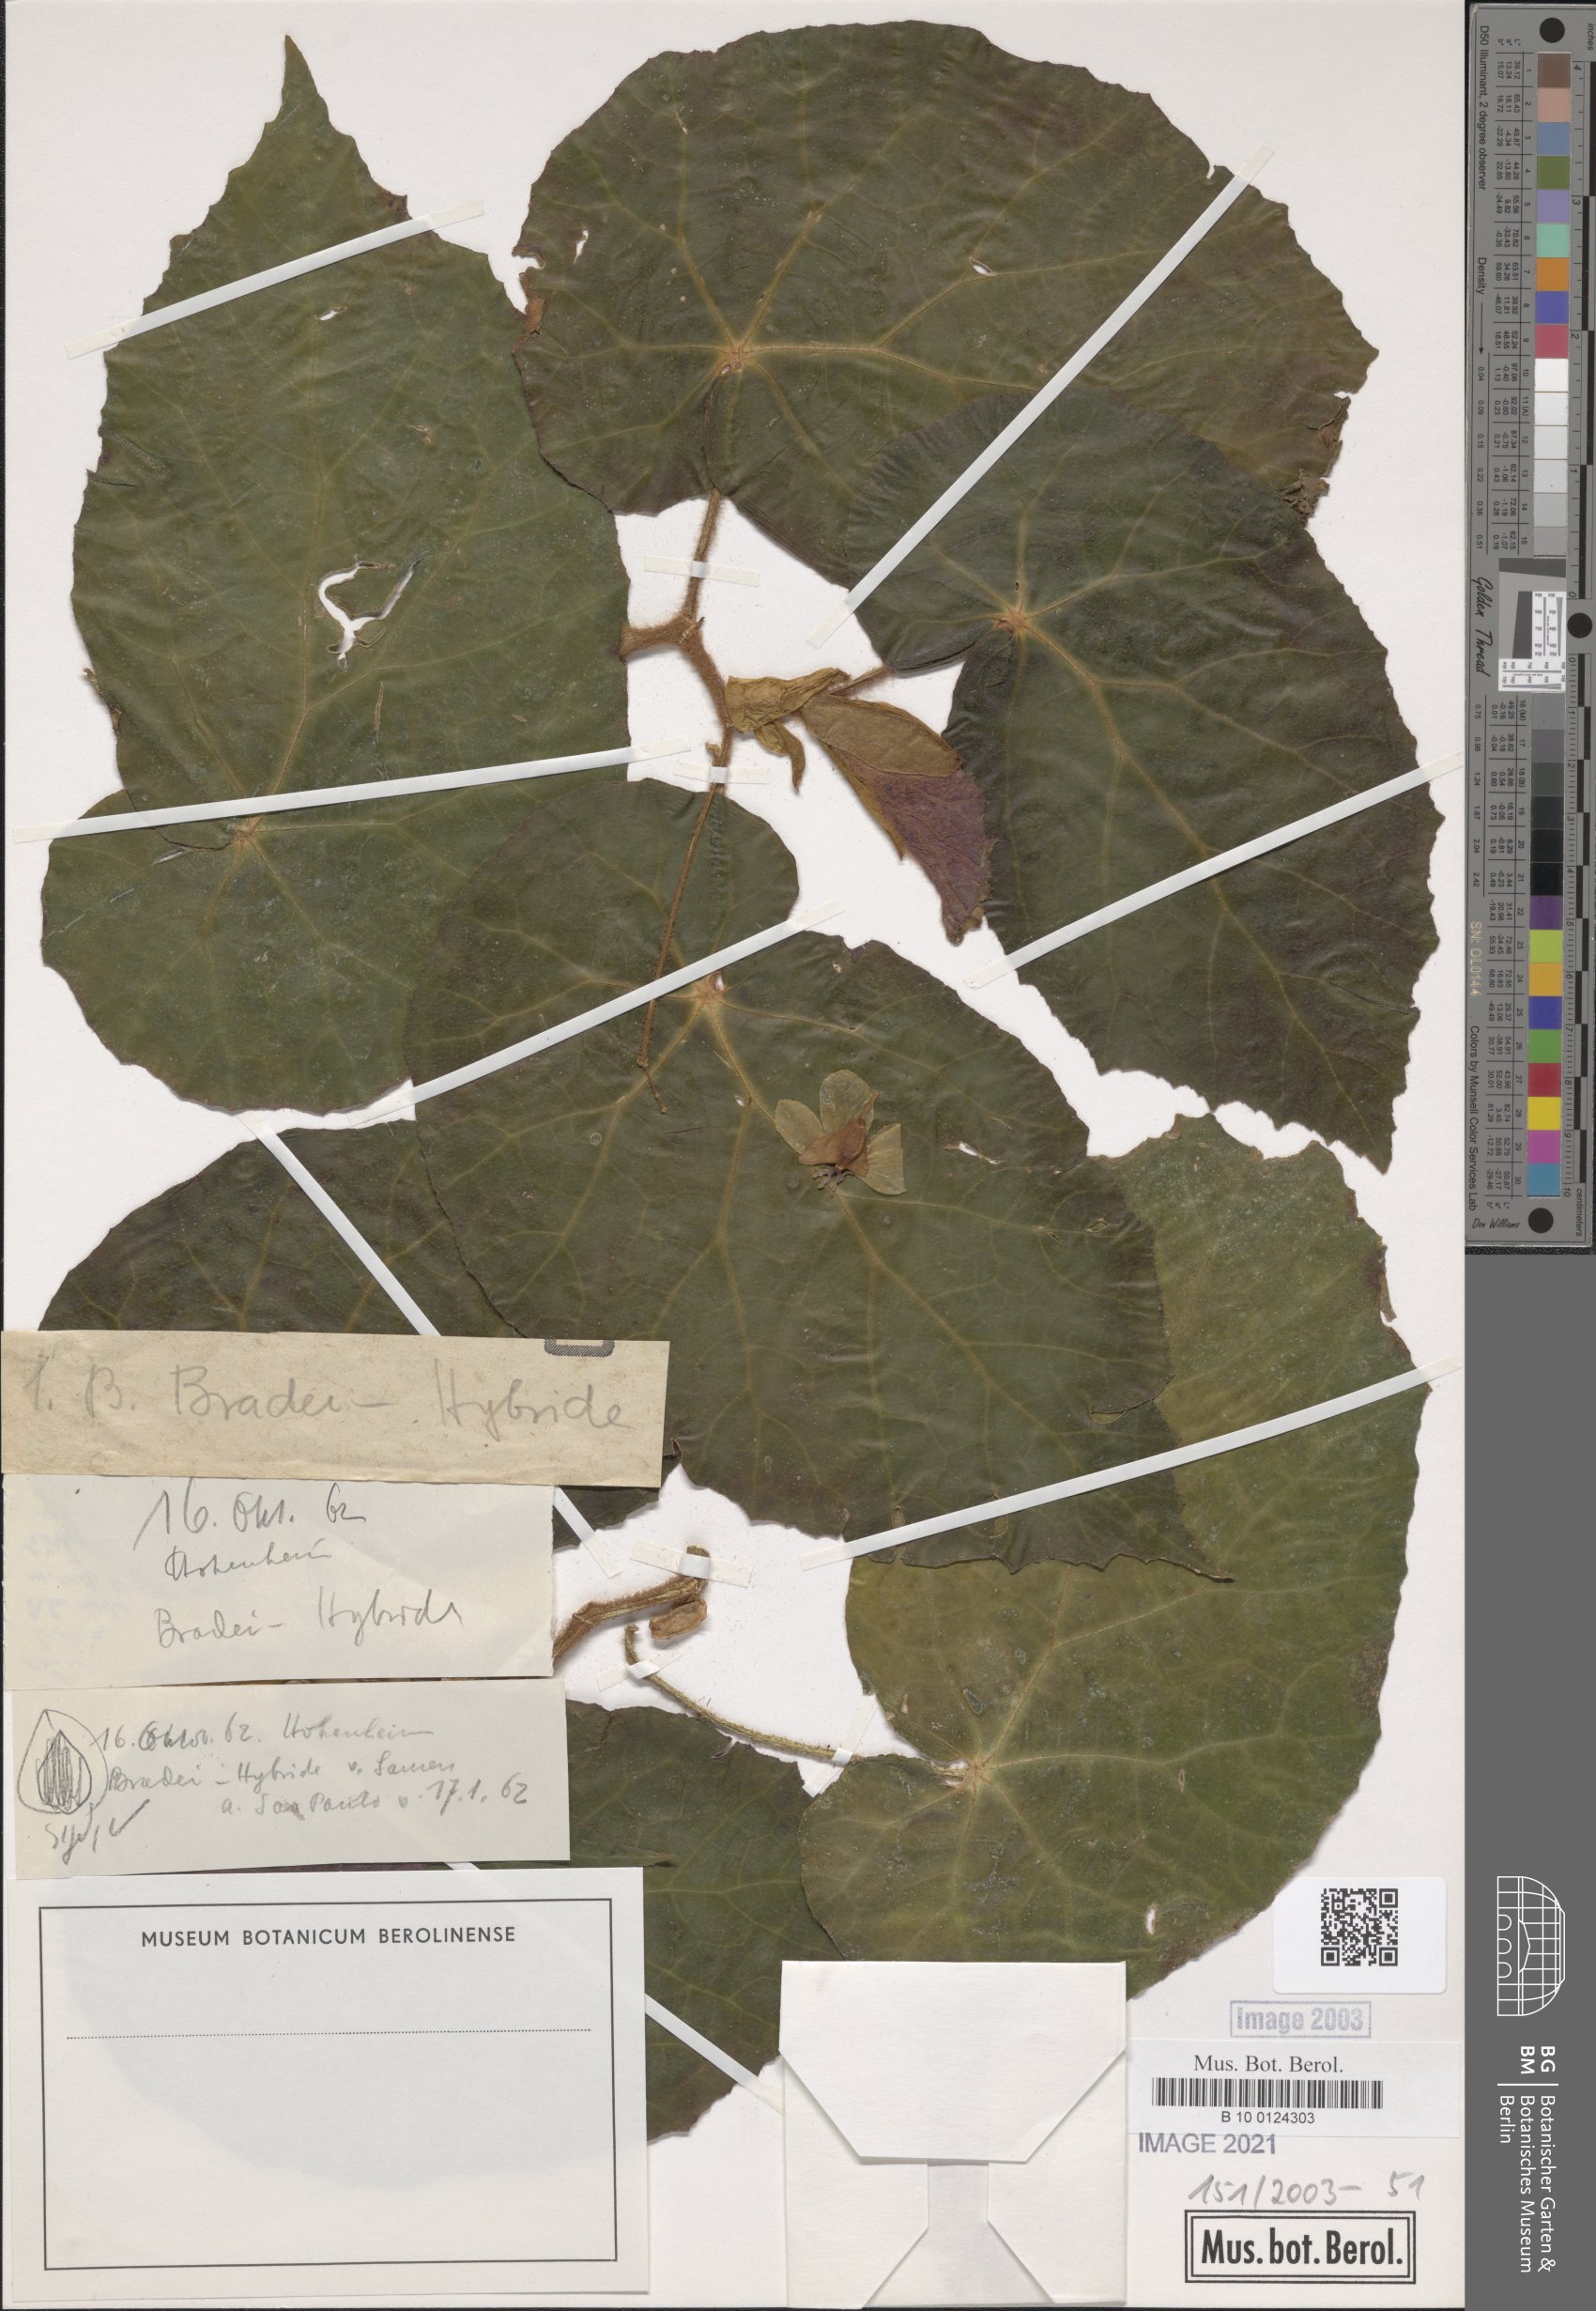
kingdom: Plantae
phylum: Tracheophyta
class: Magnoliopsida
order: Cucurbitales
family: Begoniaceae
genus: Begonia
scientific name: Begonia bradei
